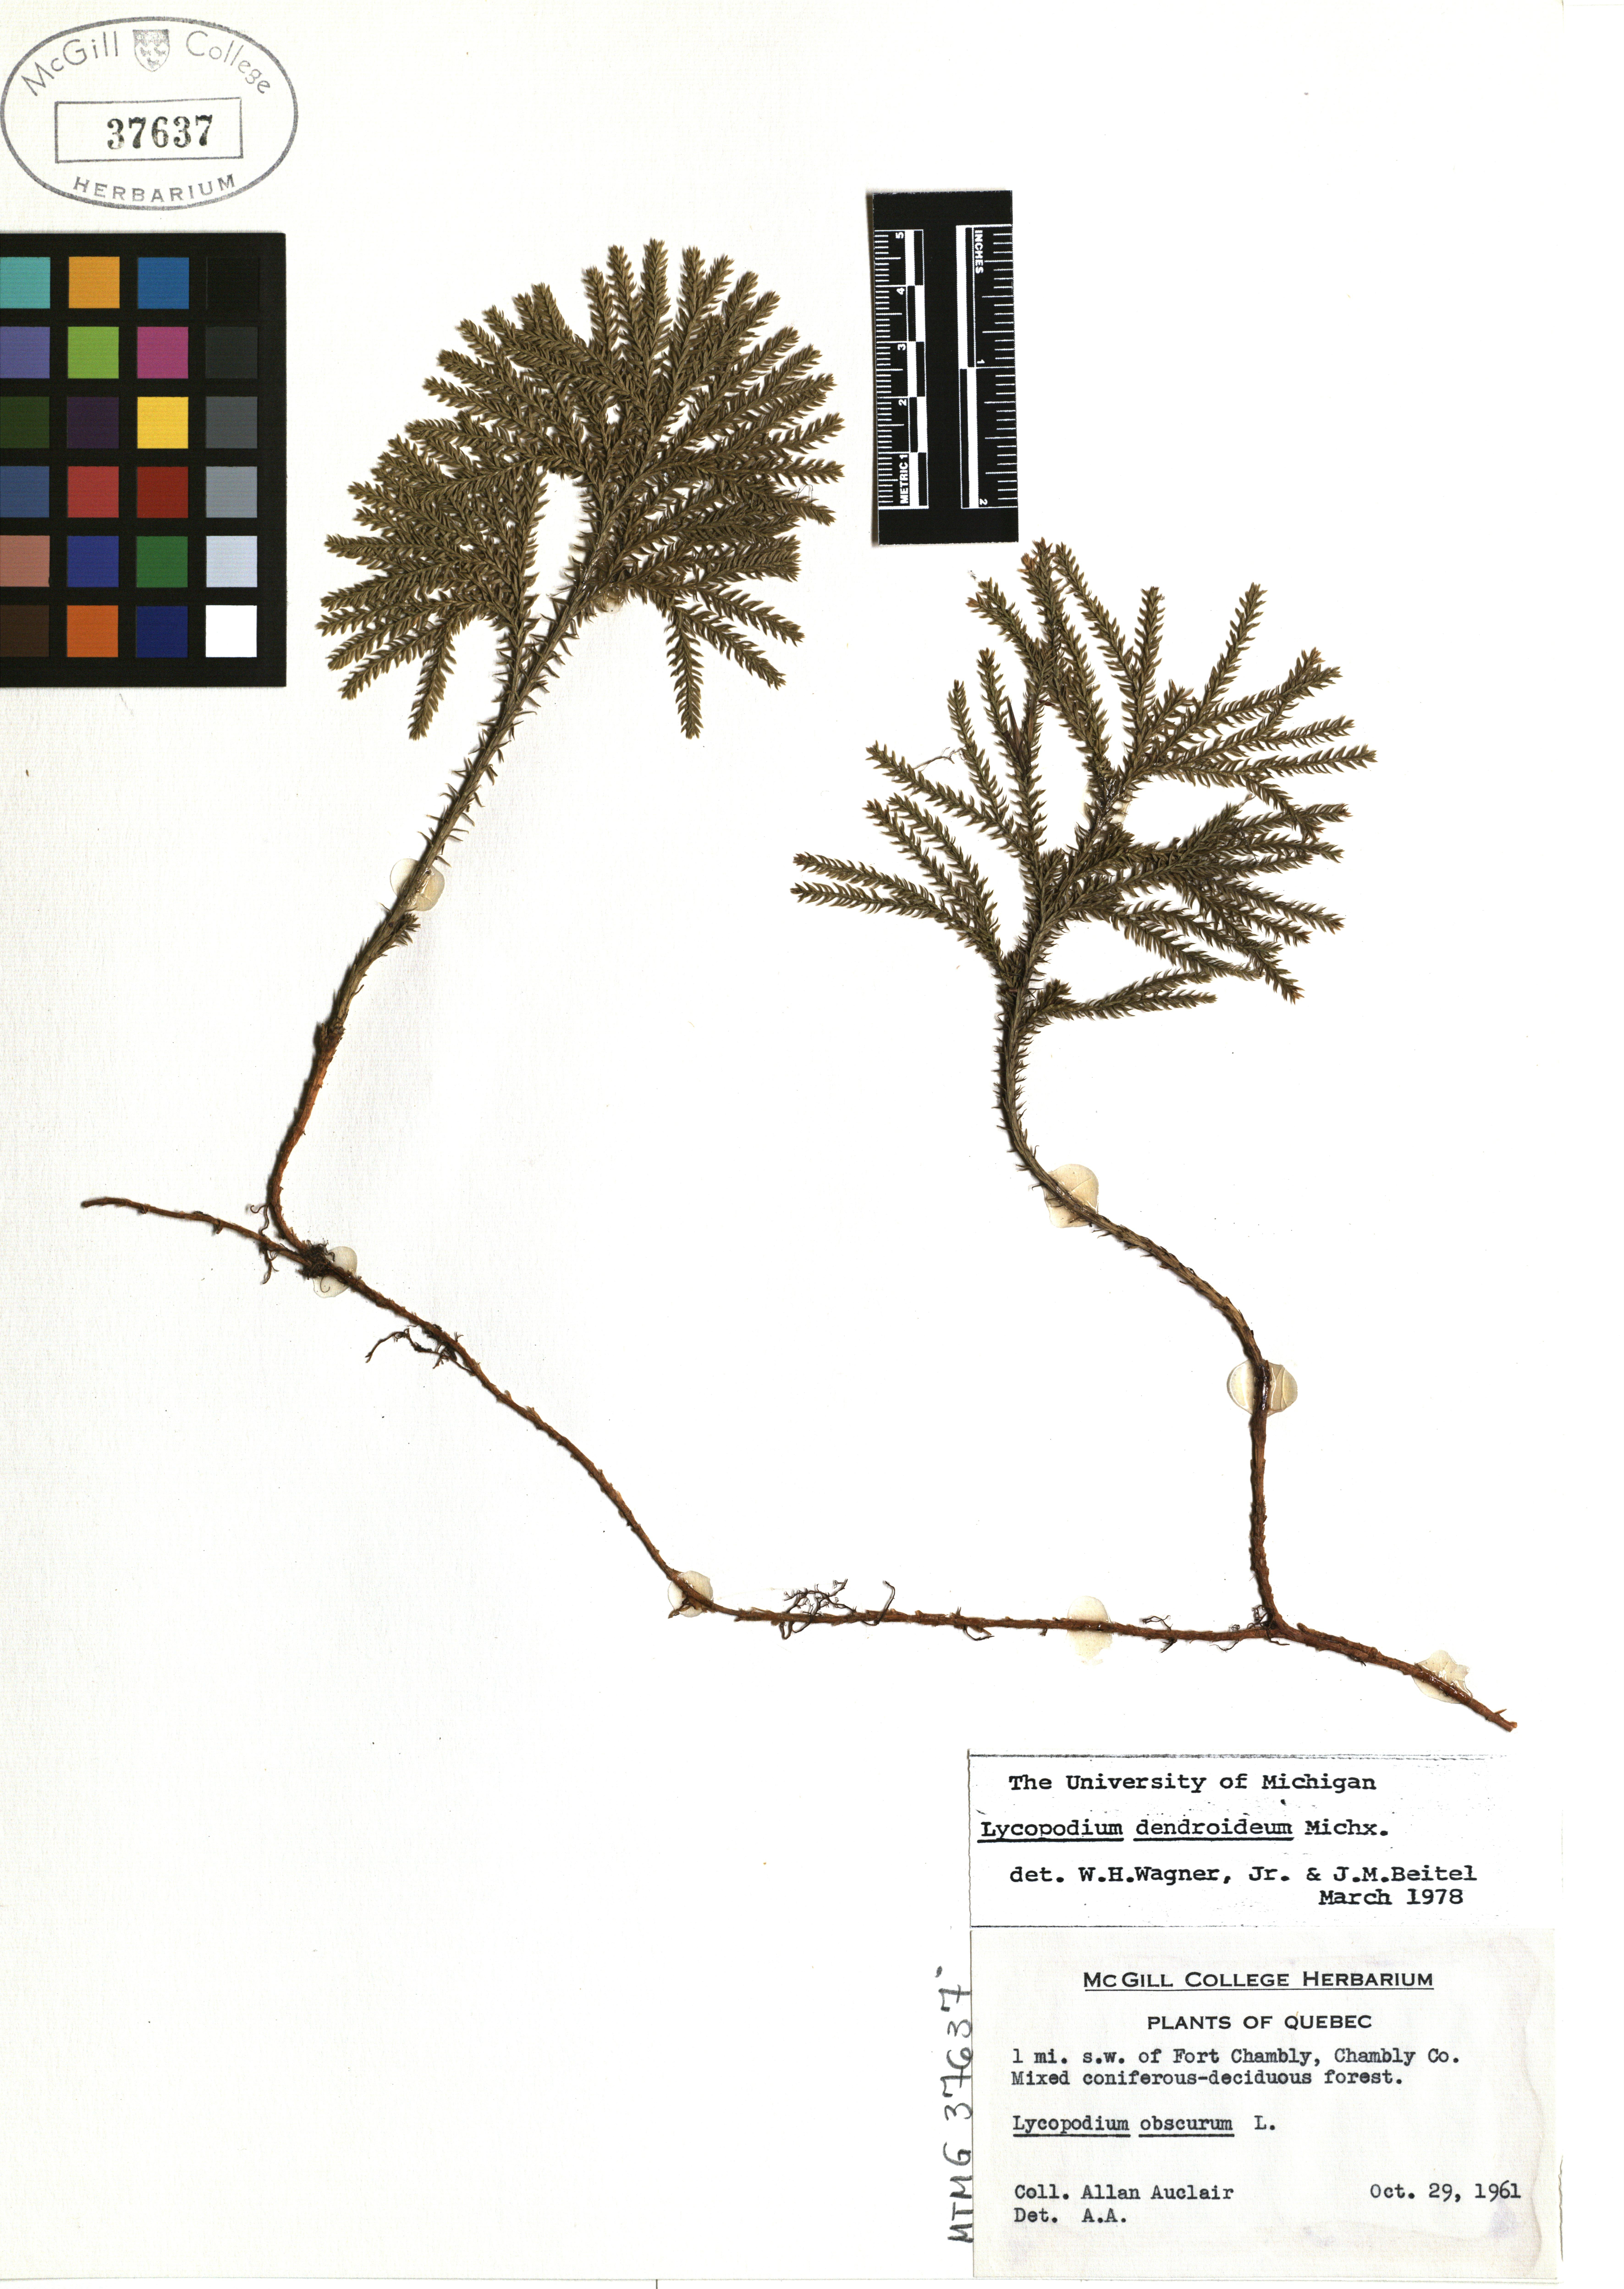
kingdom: Plantae
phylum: Tracheophyta
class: Lycopodiopsida
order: Lycopodiales
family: Lycopodiaceae
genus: Dendrolycopodium
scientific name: Dendrolycopodium dendroideum
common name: Northern tree-clubmoss
